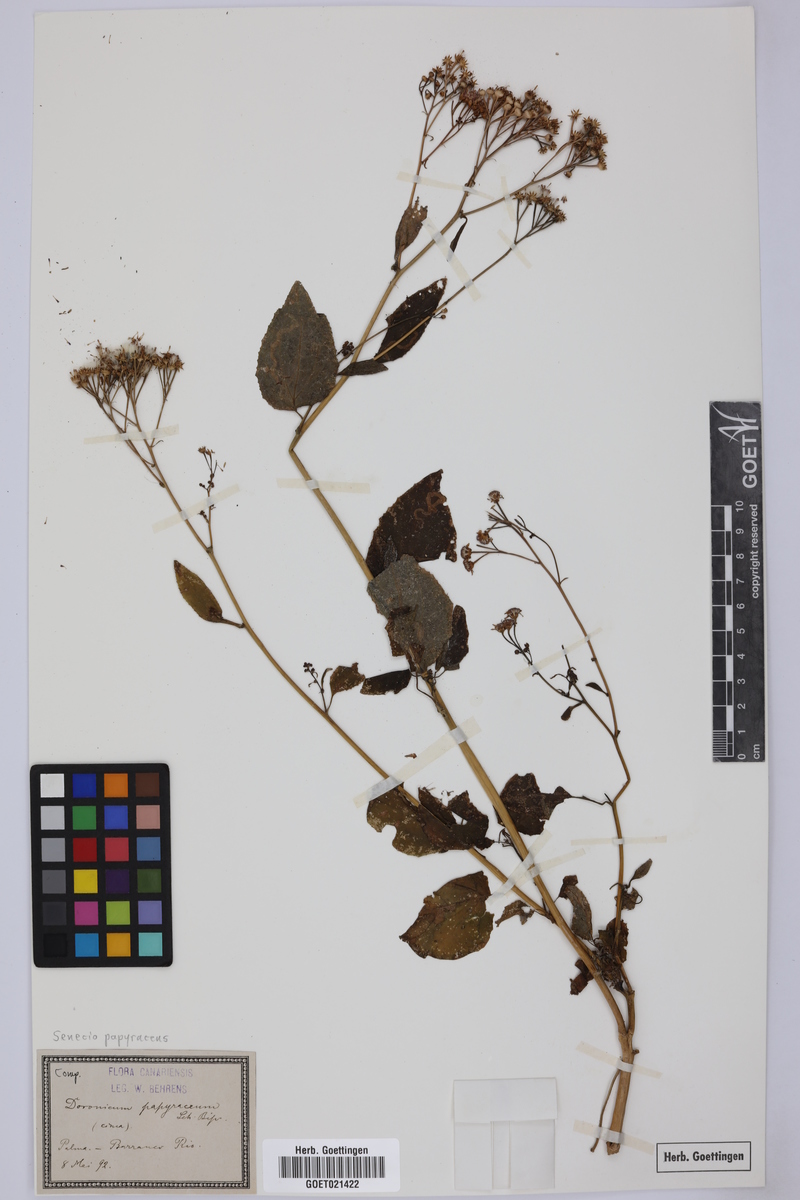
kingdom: Plantae
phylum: Tracheophyta
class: Magnoliopsida
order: Asterales
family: Asteraceae
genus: Pericallis
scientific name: Pericallis papyracea
